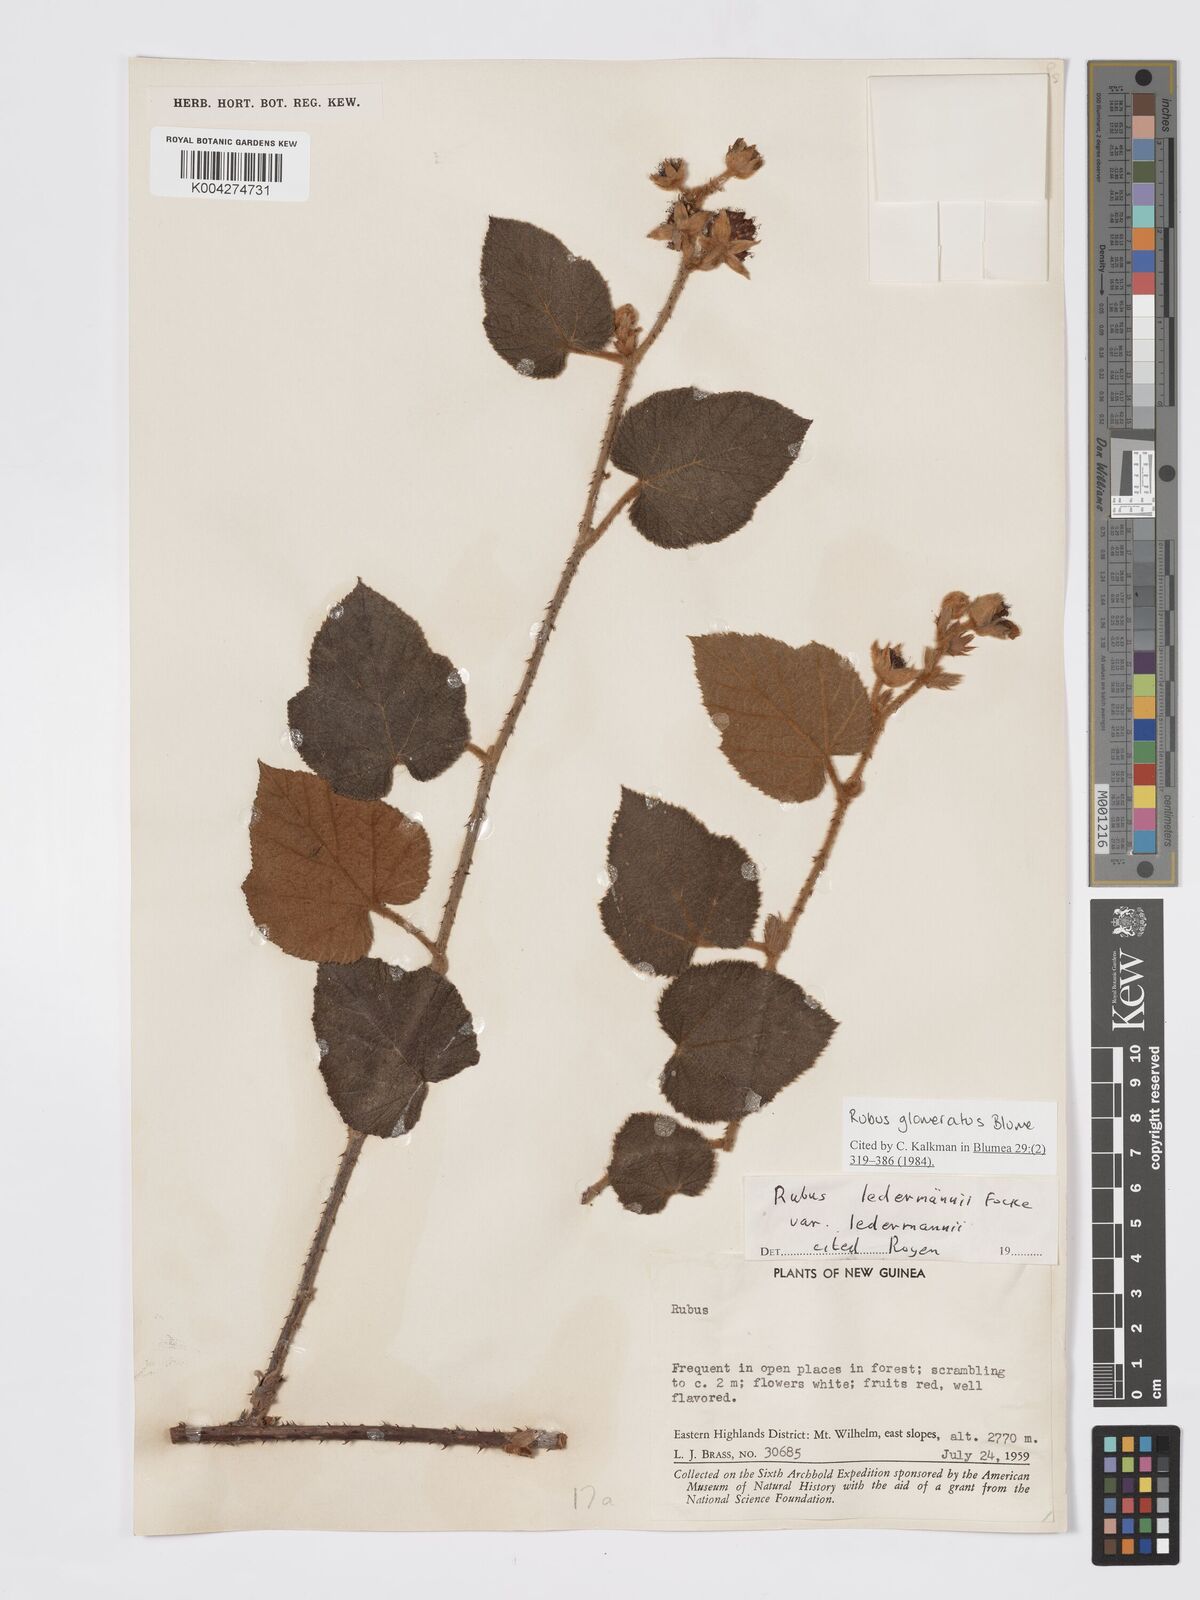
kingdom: Plantae
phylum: Tracheophyta
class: Magnoliopsida
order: Rosales
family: Rosaceae
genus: Rubus
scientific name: Rubus
